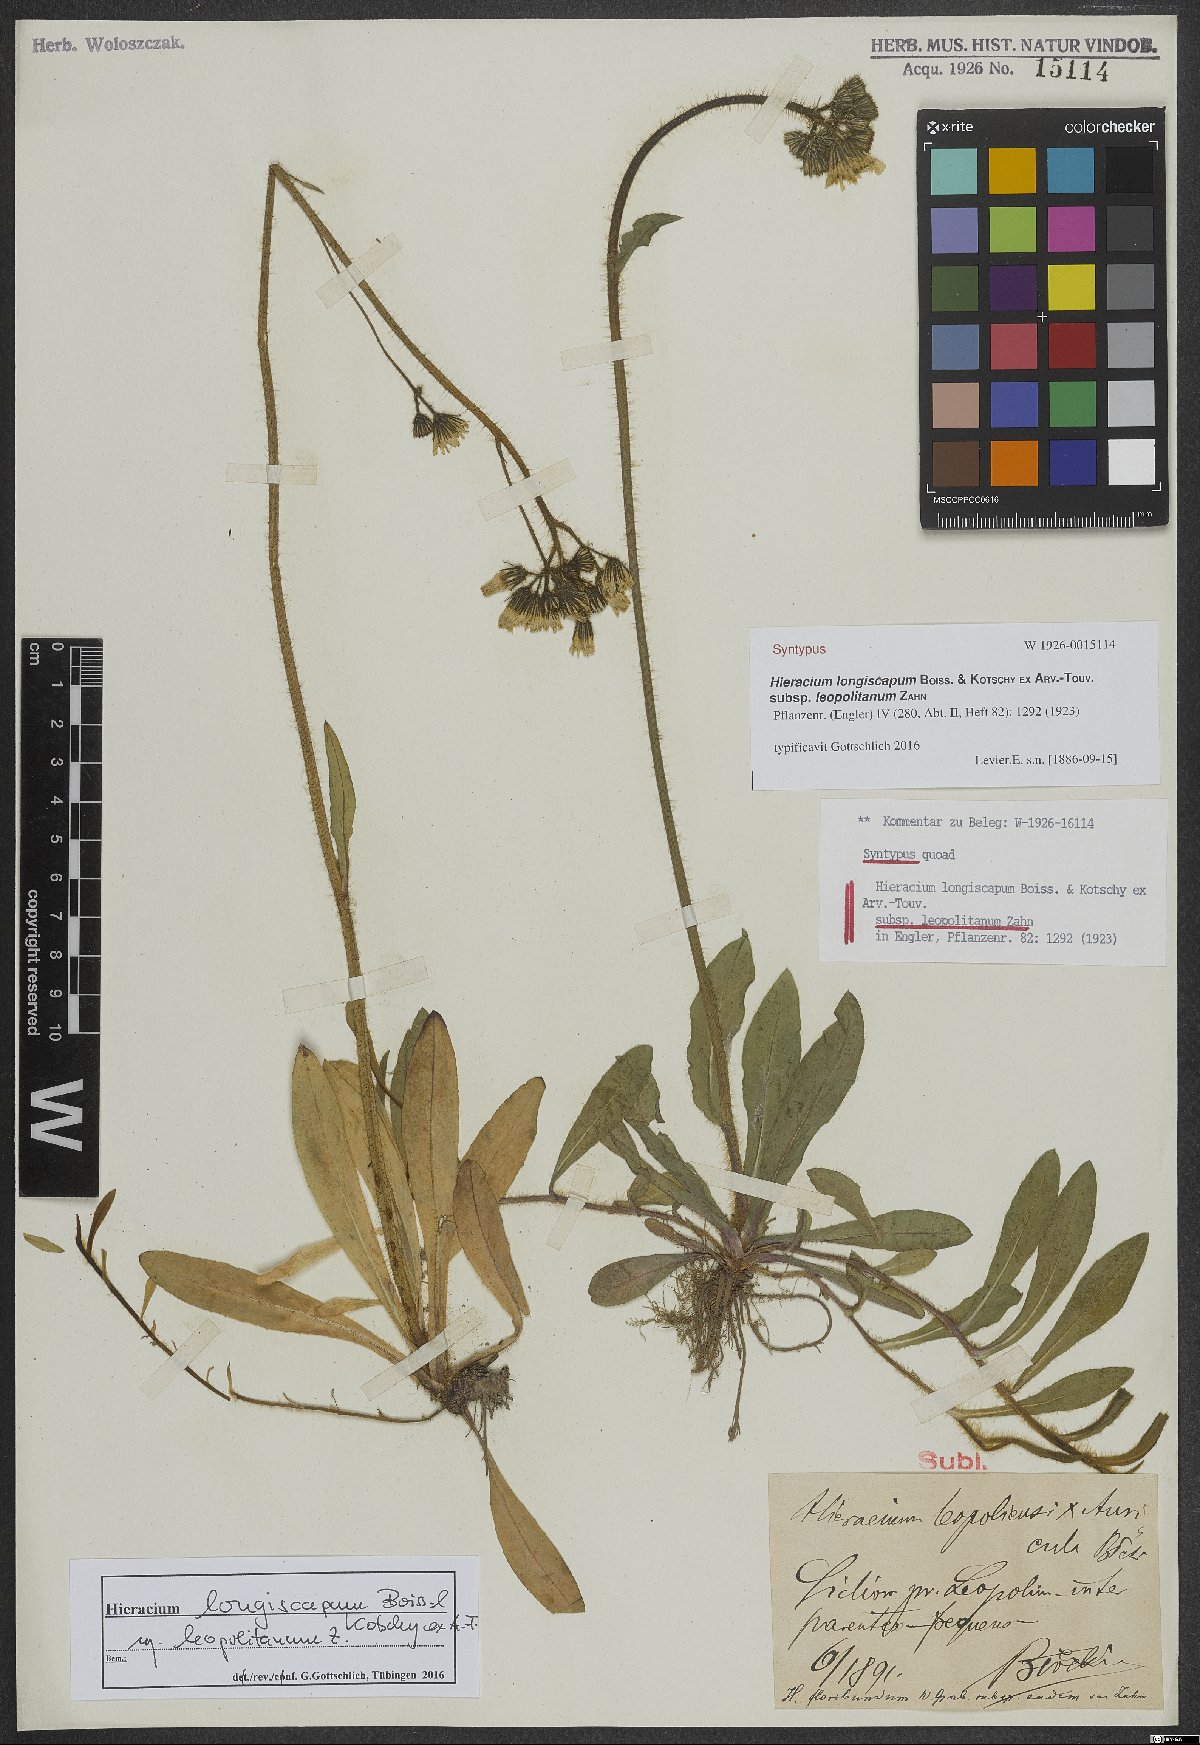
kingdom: Plantae
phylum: Tracheophyta
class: Magnoliopsida
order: Asterales
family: Asteraceae
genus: Pilosella
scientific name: Pilosella floribunda
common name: Glaucous hawkweed
